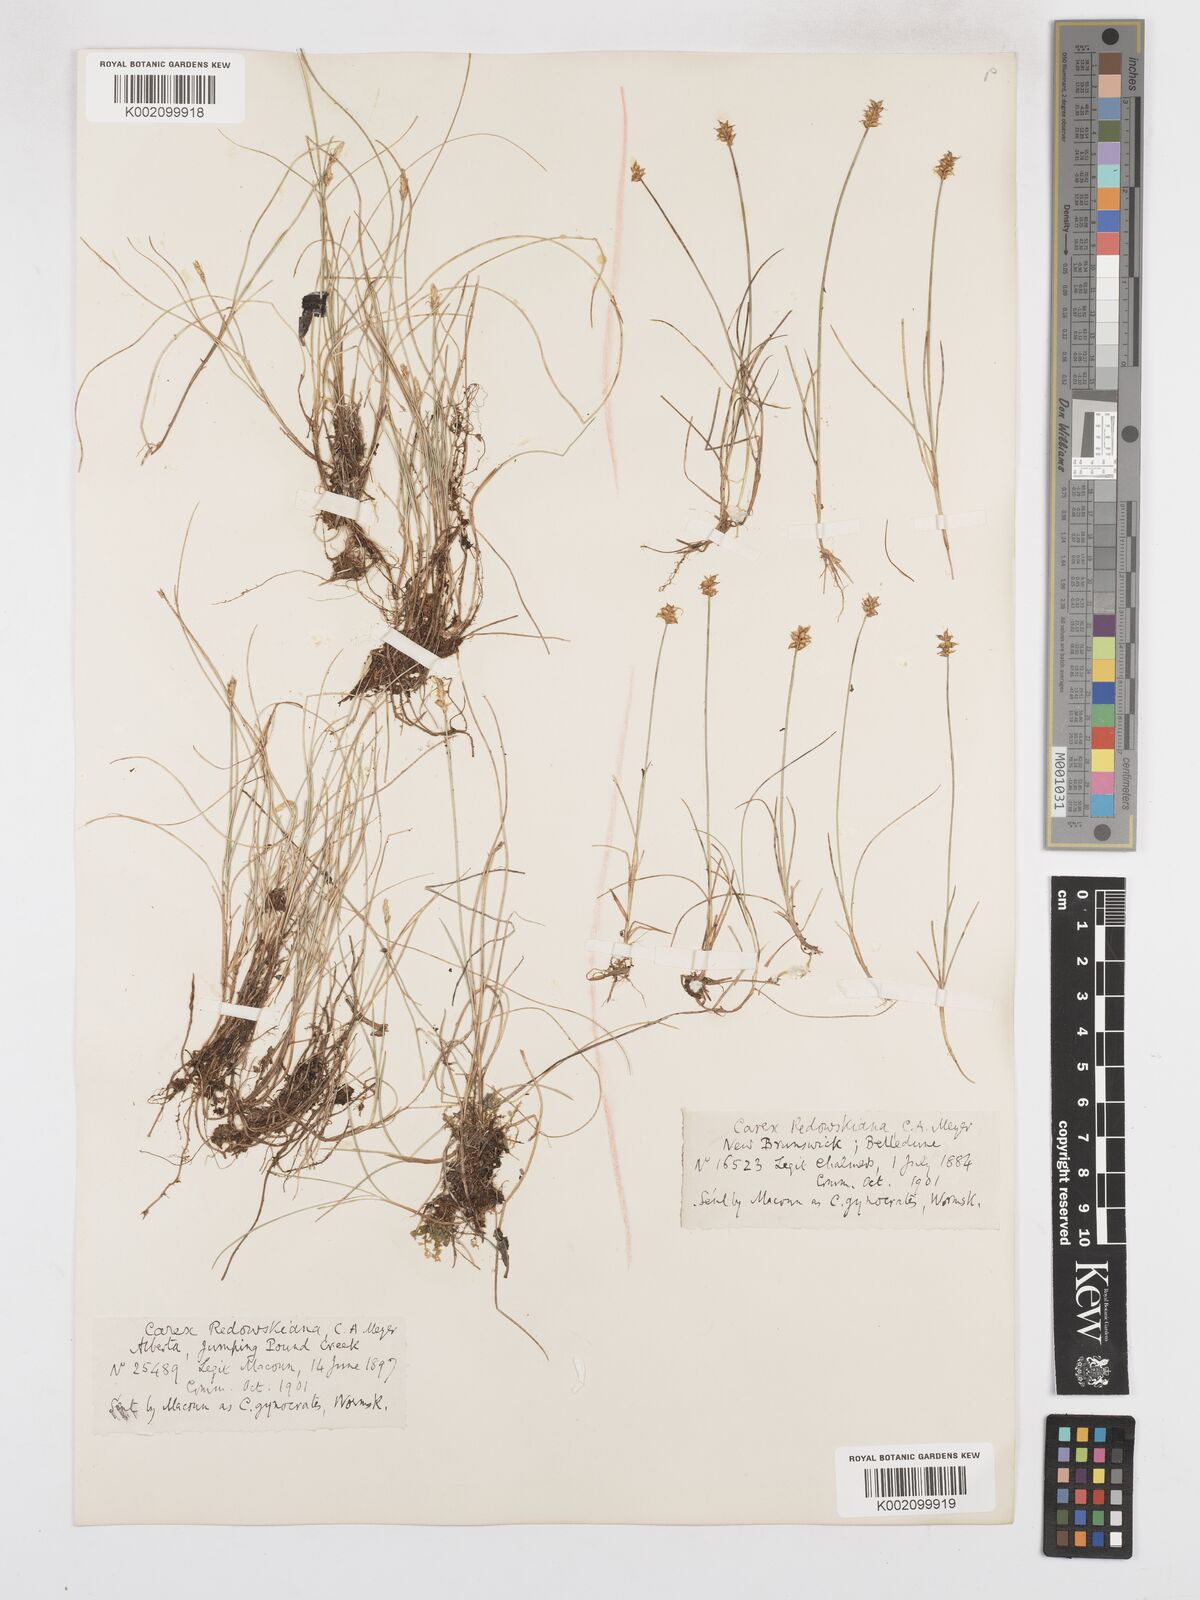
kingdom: Plantae
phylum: Tracheophyta
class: Liliopsida
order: Poales
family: Cyperaceae
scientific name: Cyperaceae
